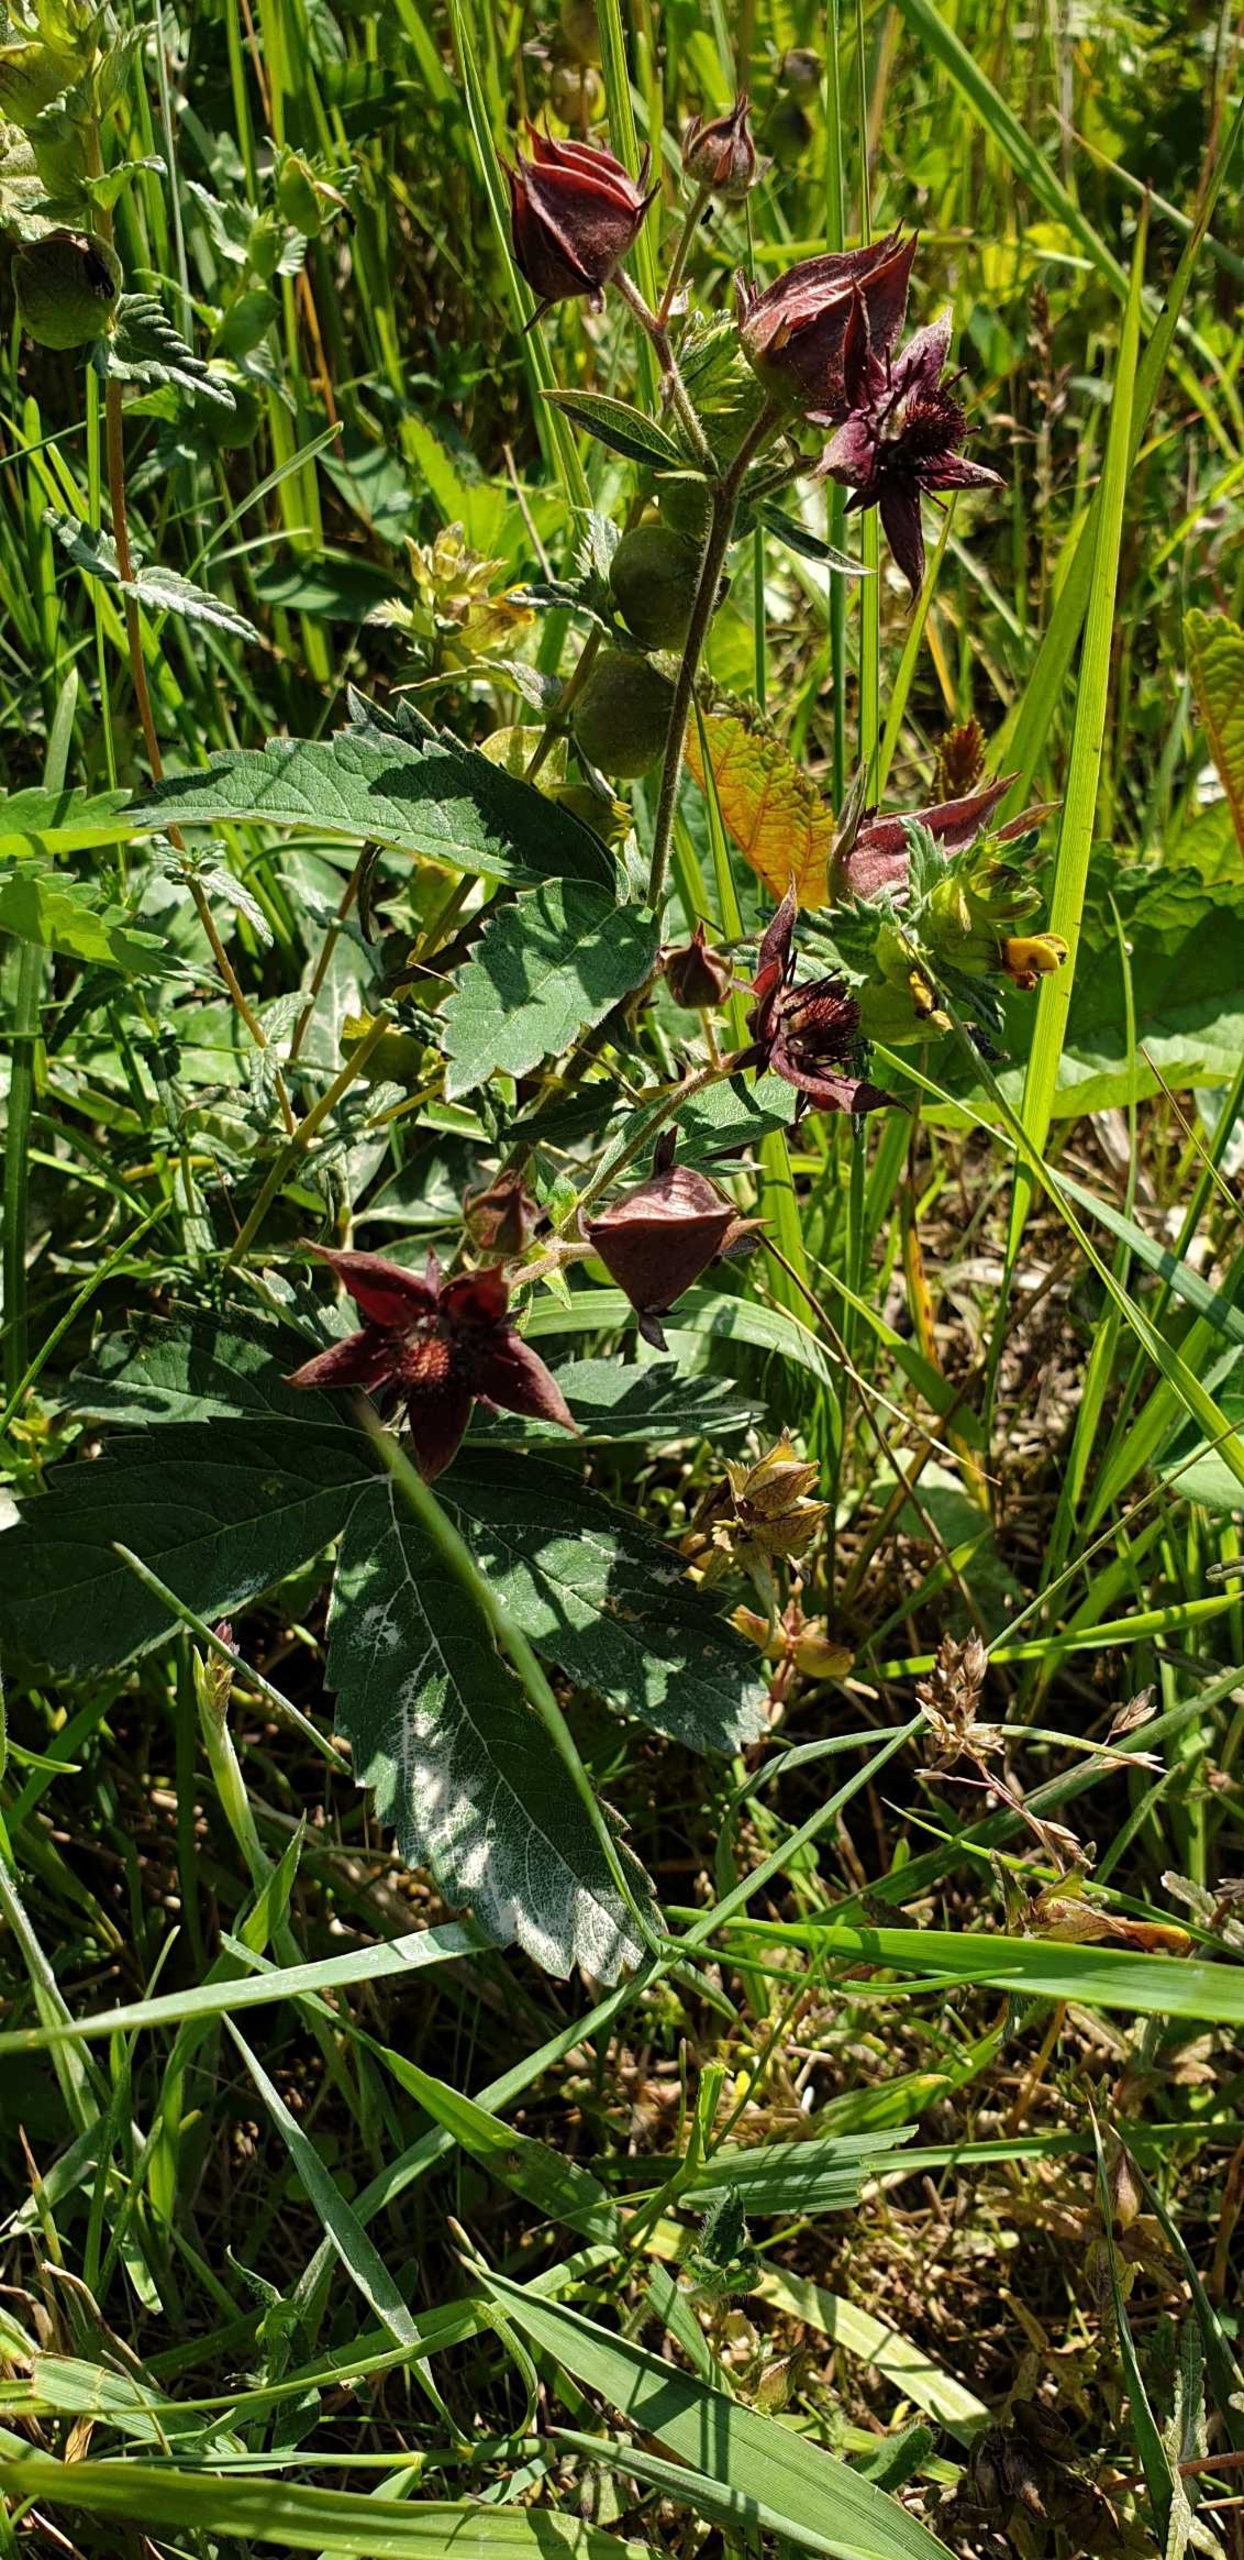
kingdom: Plantae
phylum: Tracheophyta
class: Magnoliopsida
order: Rosales
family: Rosaceae
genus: Comarum
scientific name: Comarum palustre
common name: Kragefod
